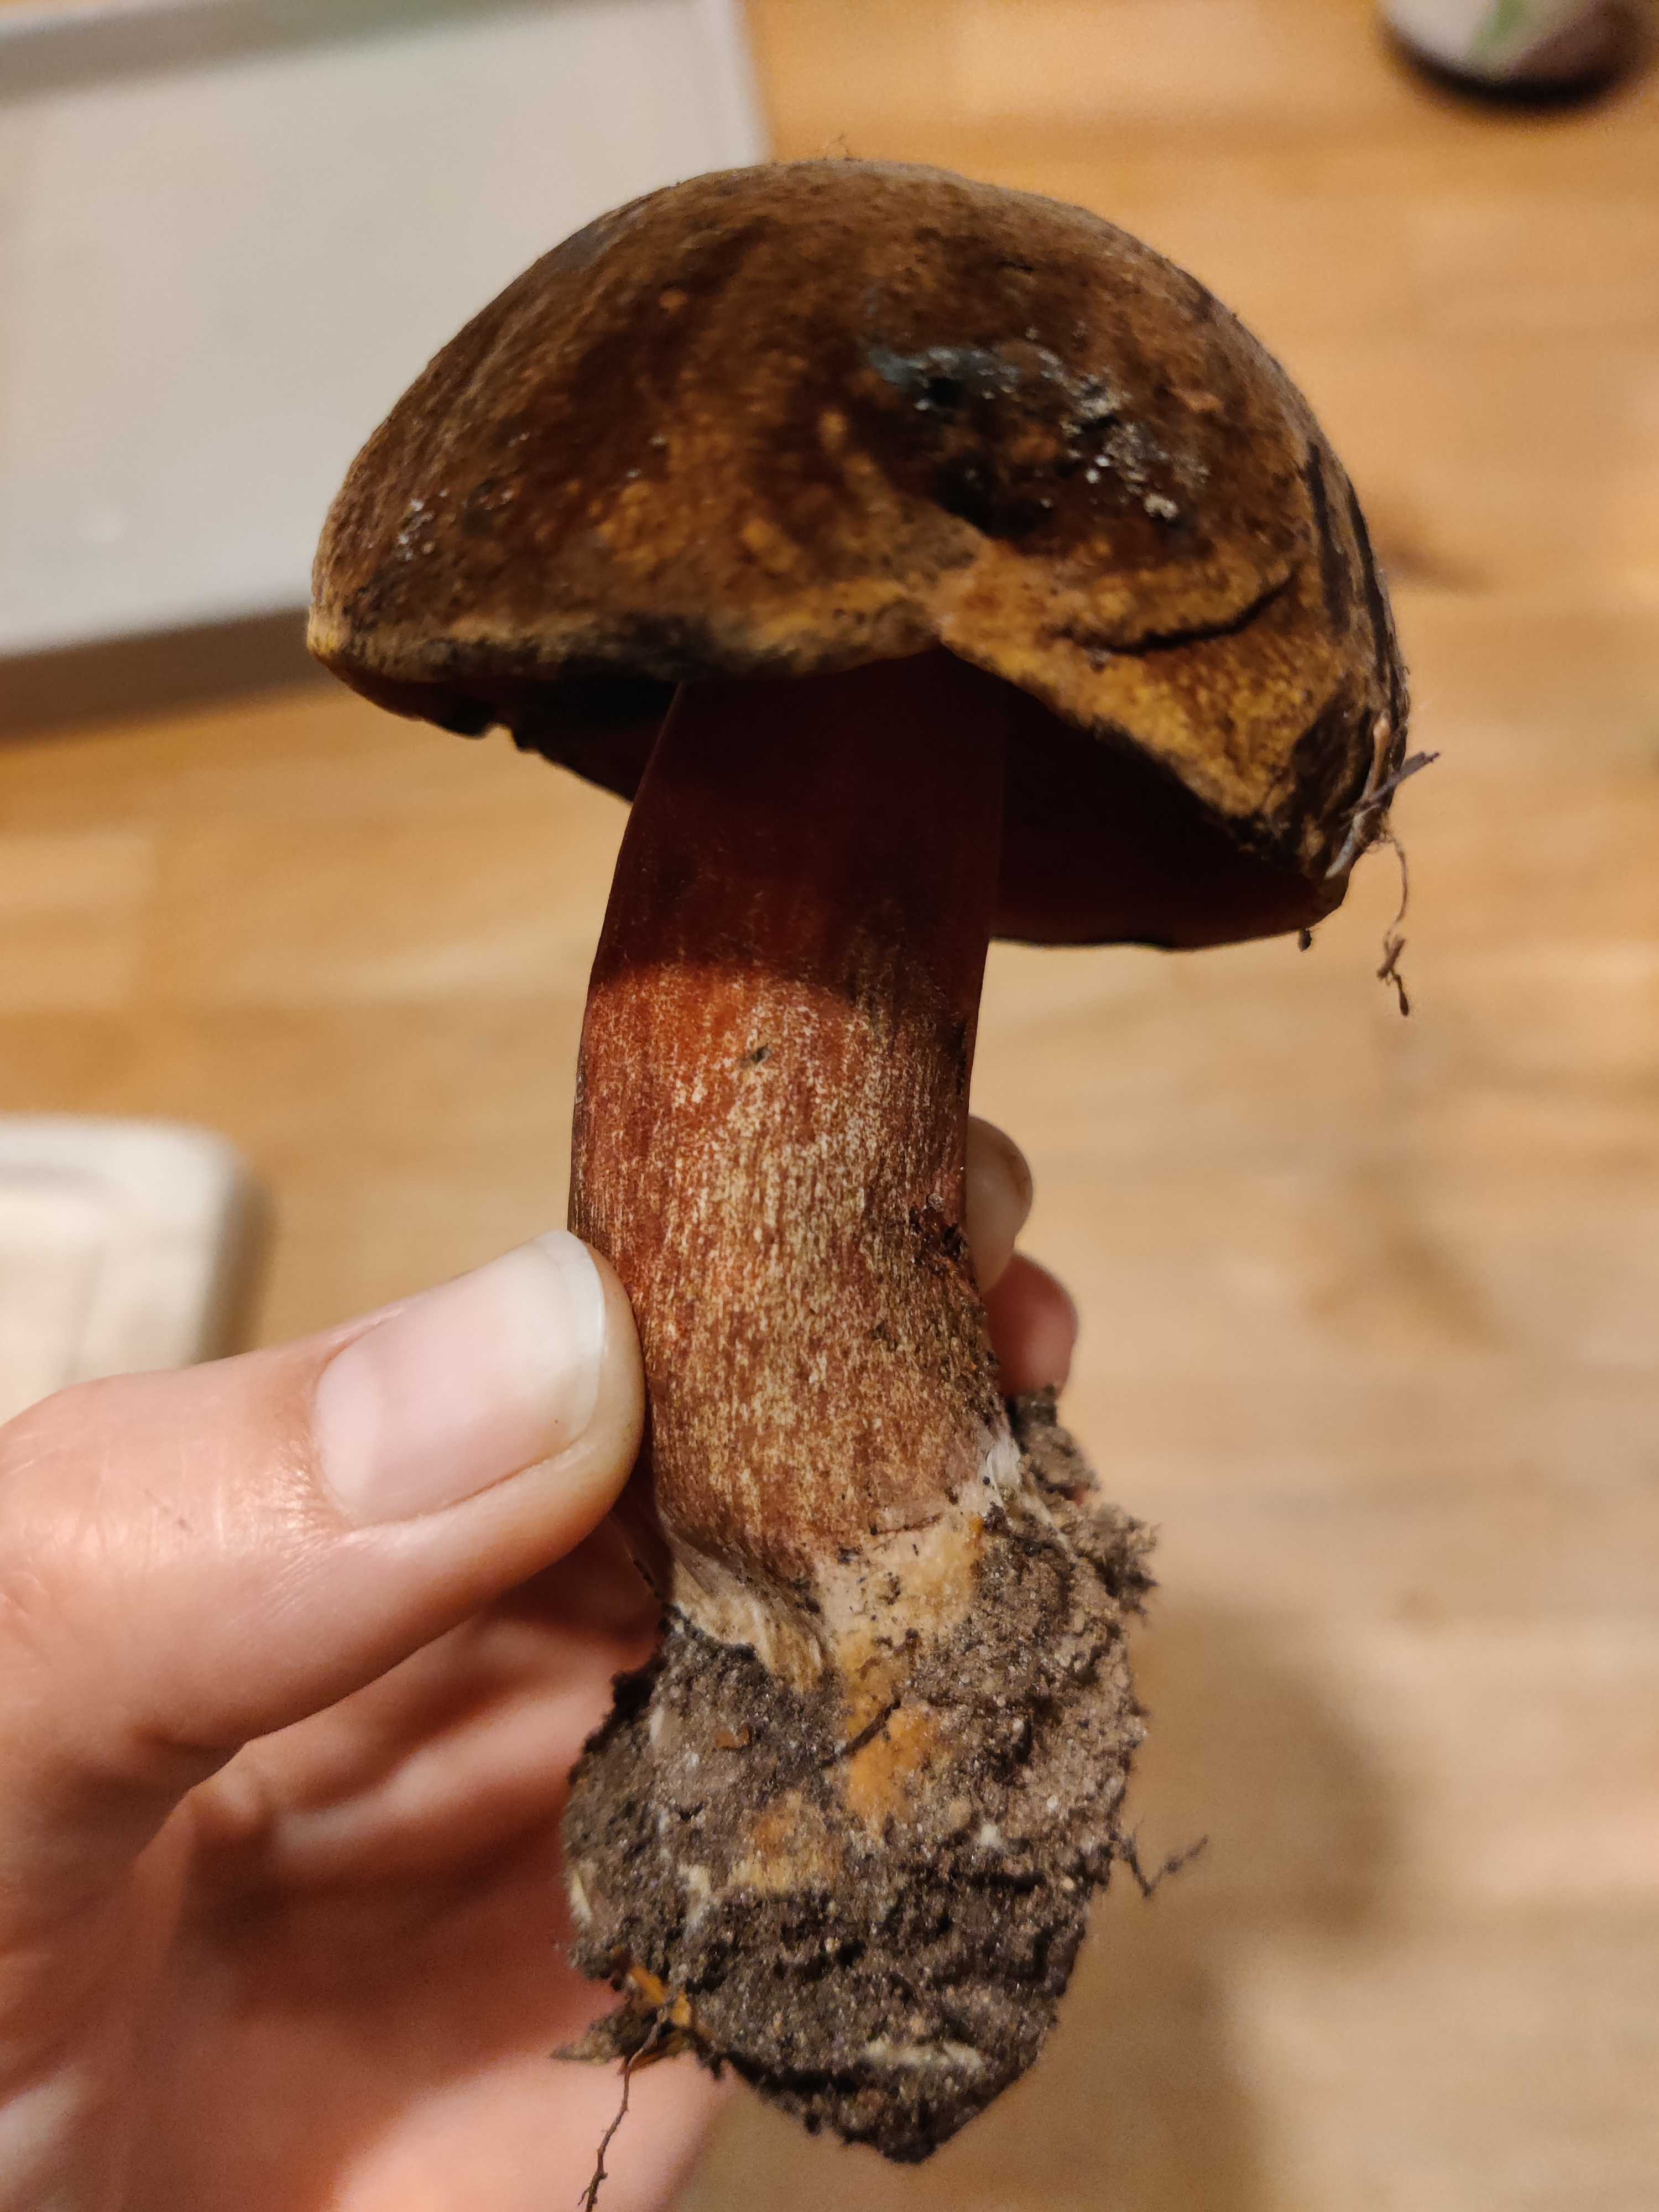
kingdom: Fungi
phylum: Basidiomycota
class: Agaricomycetes
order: Boletales
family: Boletaceae
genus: Neoboletus
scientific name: Neoboletus erythropus
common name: punktstokket indigorørhat
